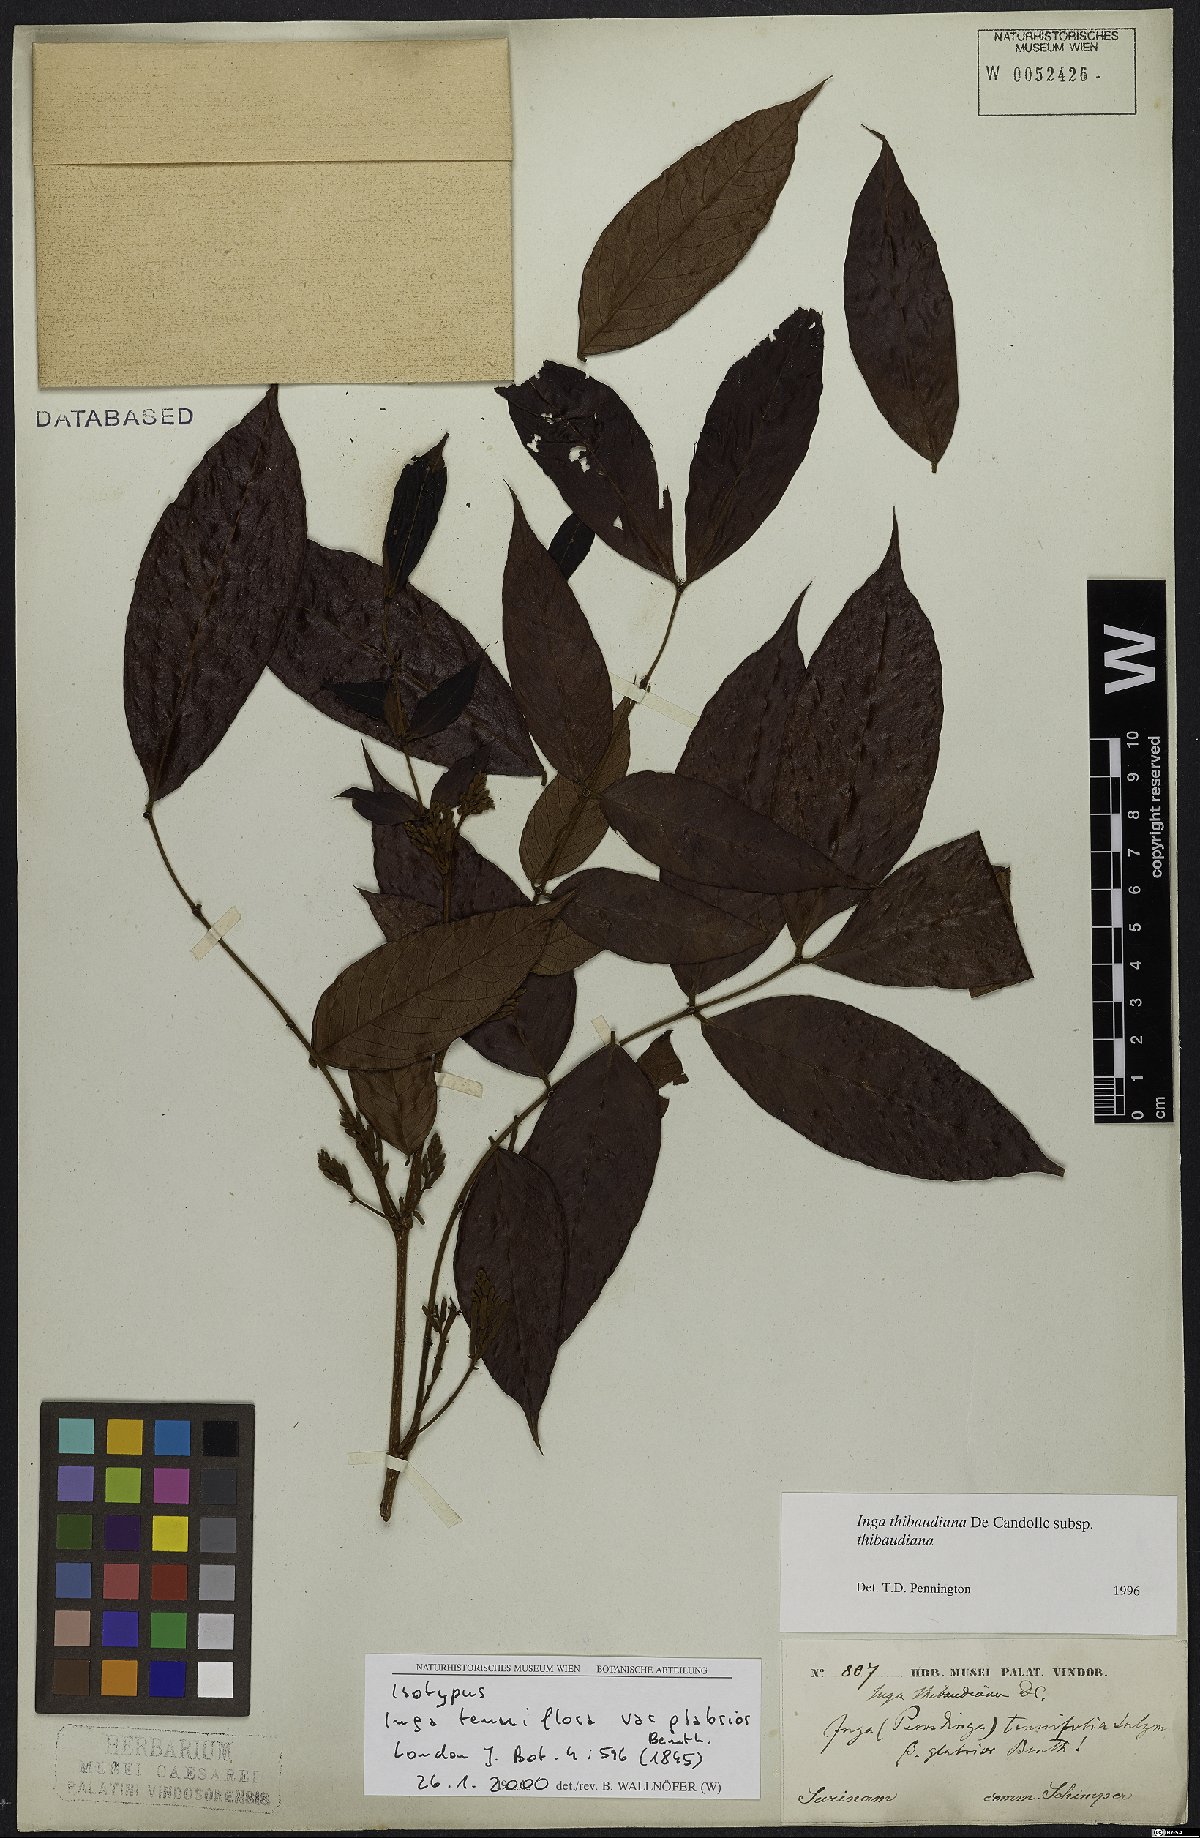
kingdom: Plantae
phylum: Tracheophyta
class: Magnoliopsida
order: Fabales
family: Fabaceae
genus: Inga
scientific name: Inga thibaudiana
